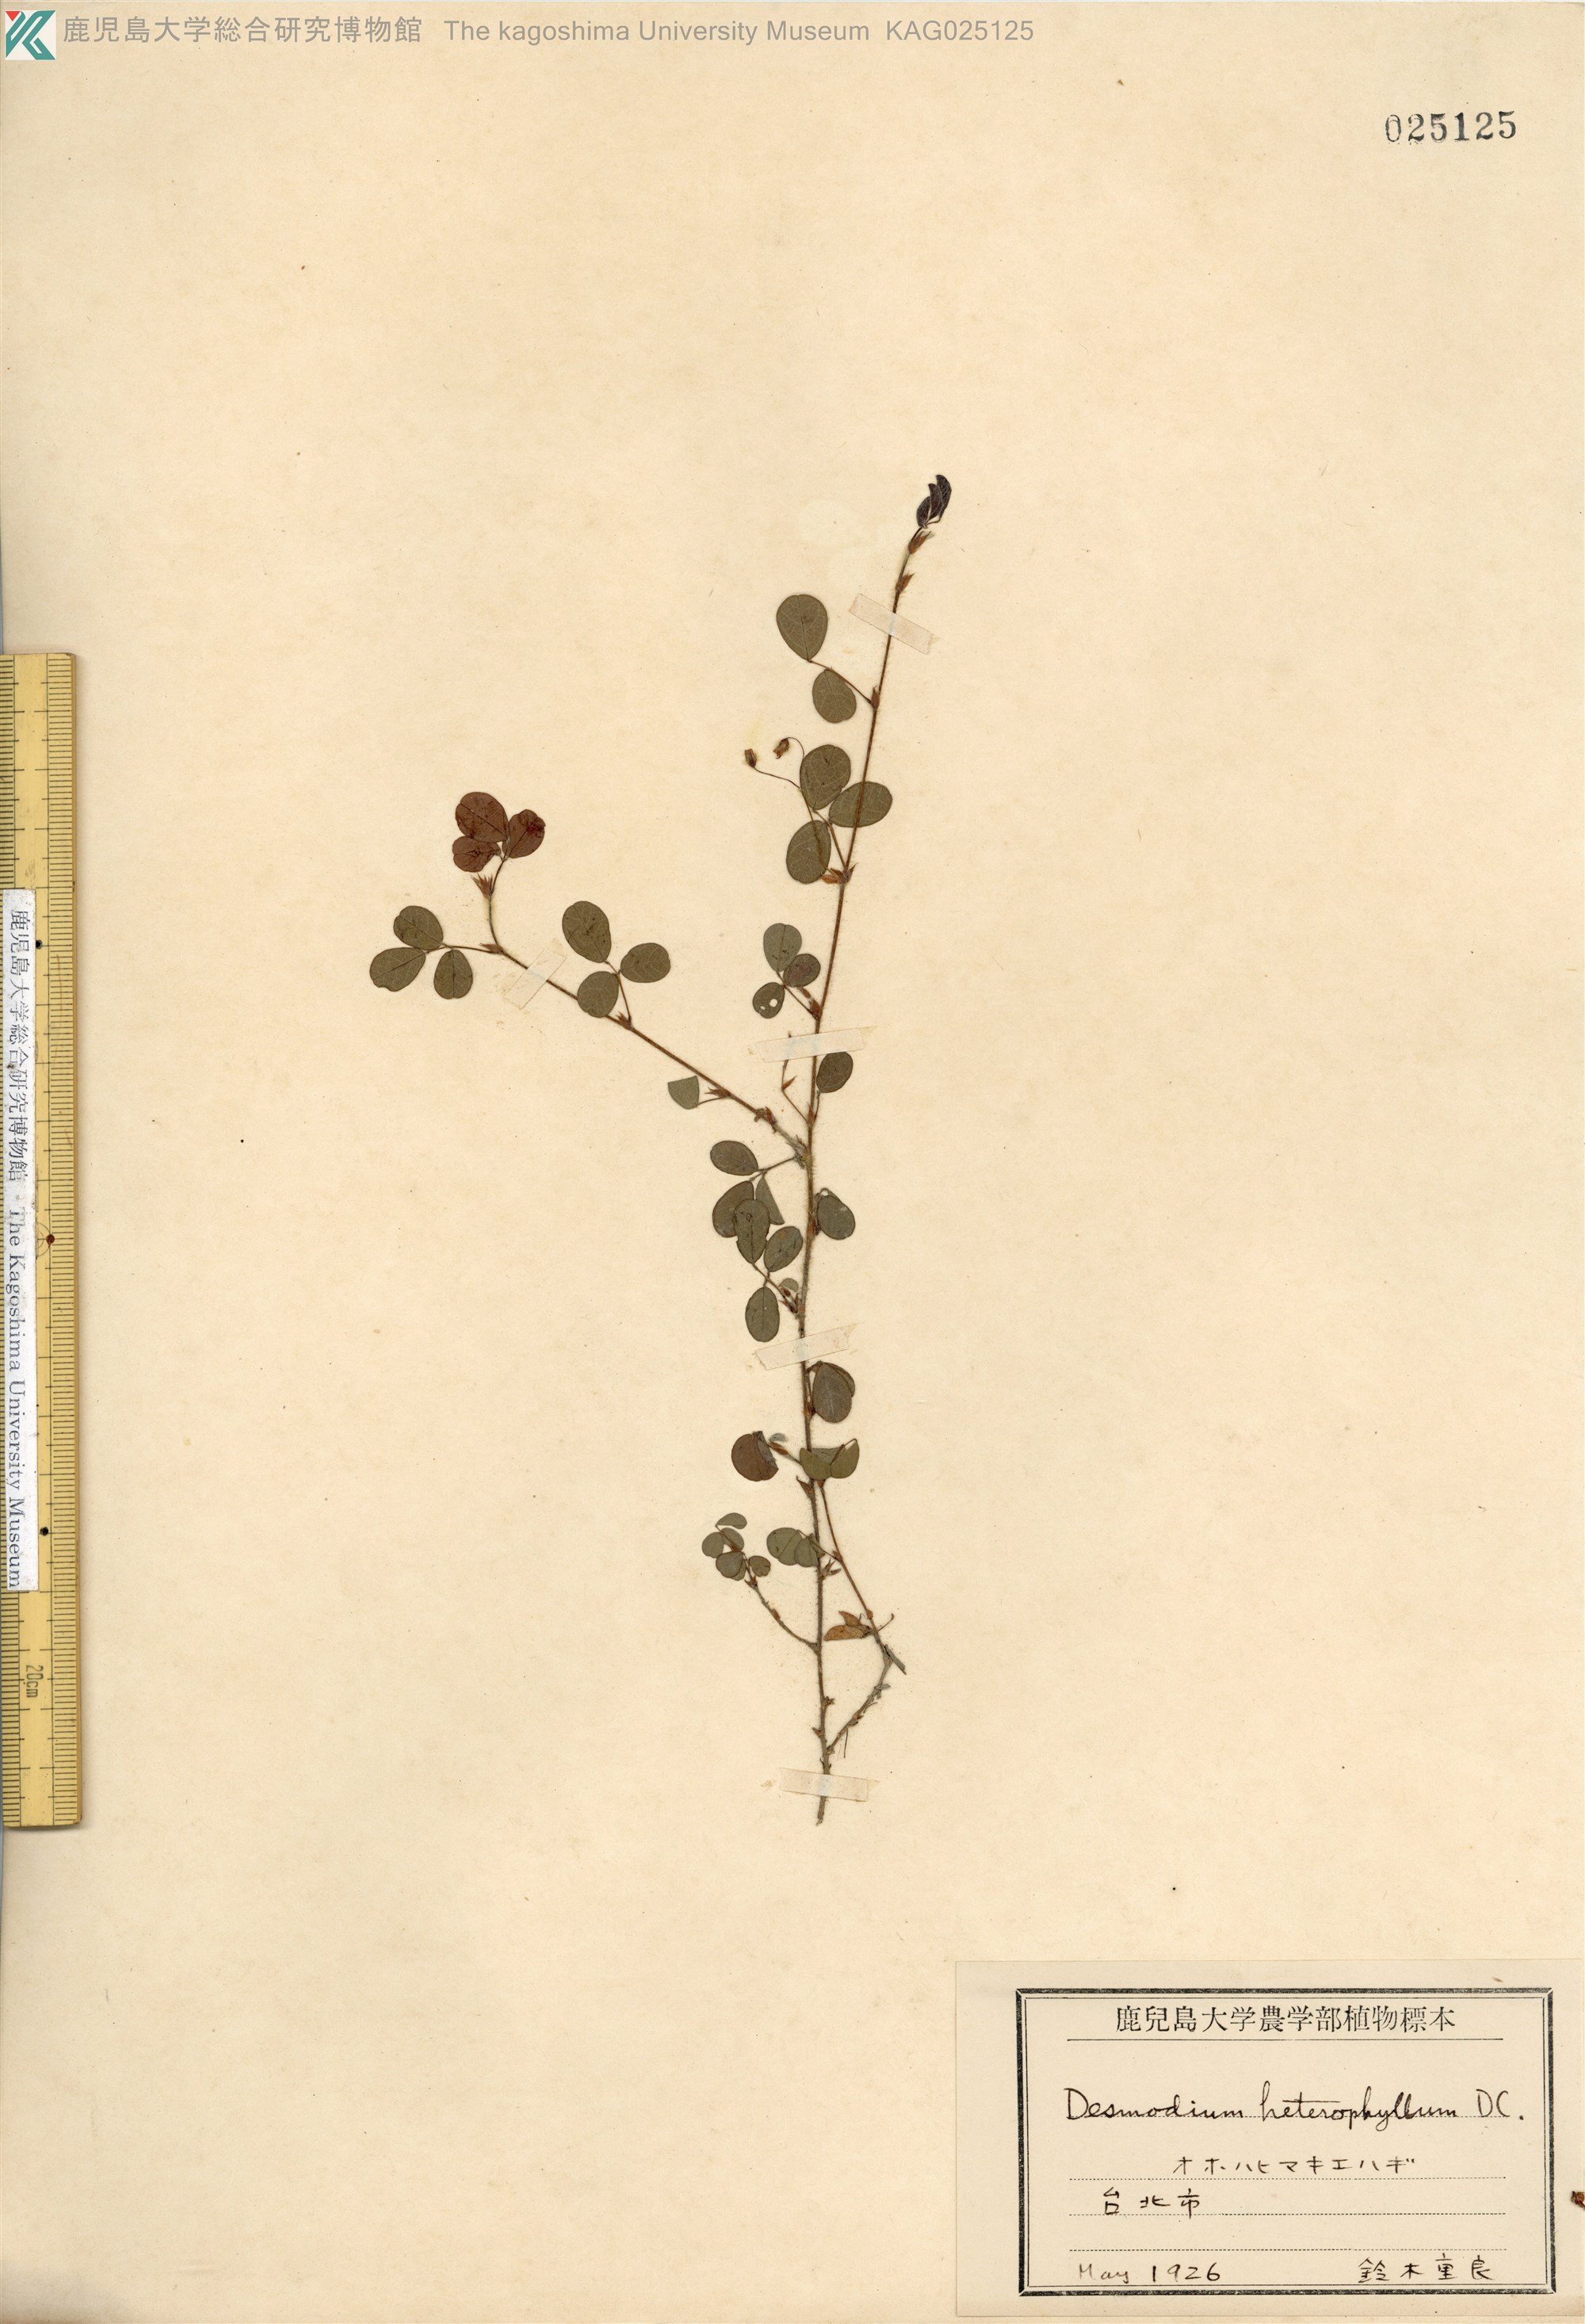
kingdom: Plantae
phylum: Tracheophyta
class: Magnoliopsida
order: Fabales
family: Fabaceae
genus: Desmodium
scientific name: Desmodium heterophyllum
